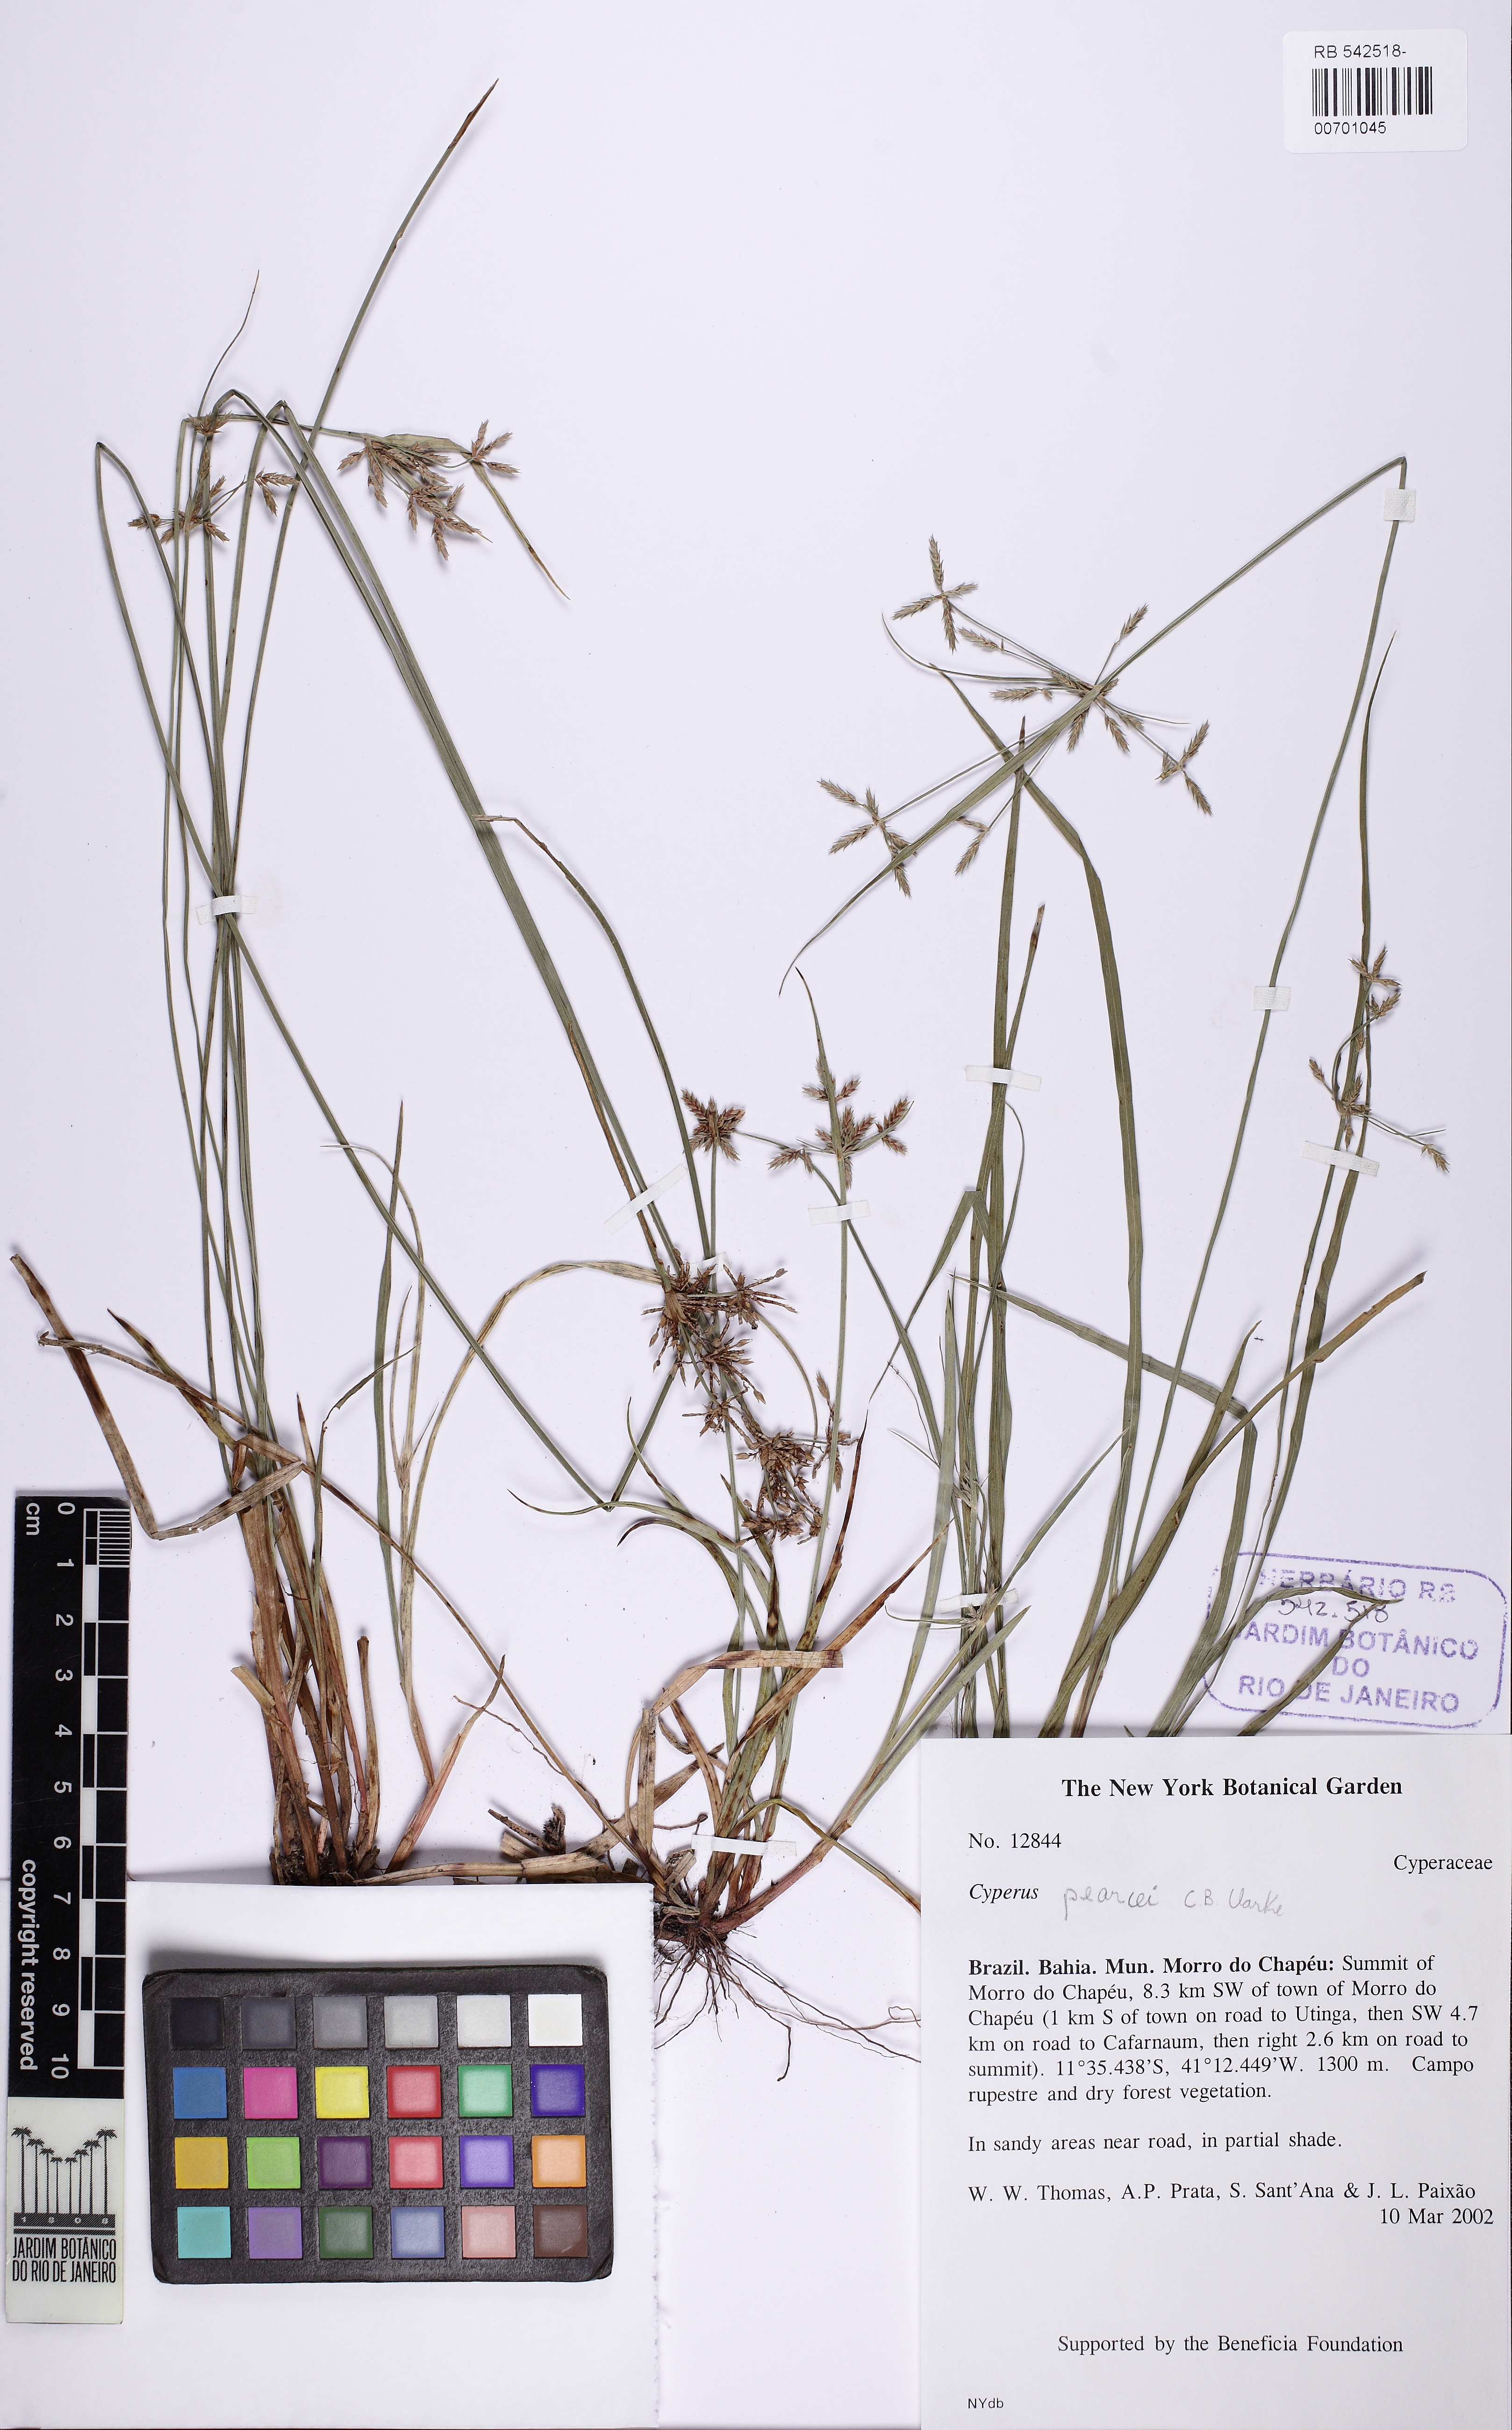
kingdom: Plantae
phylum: Tracheophyta
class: Liliopsida
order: Poales
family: Cyperaceae
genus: Cyperus
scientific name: Cyperus davidsei
